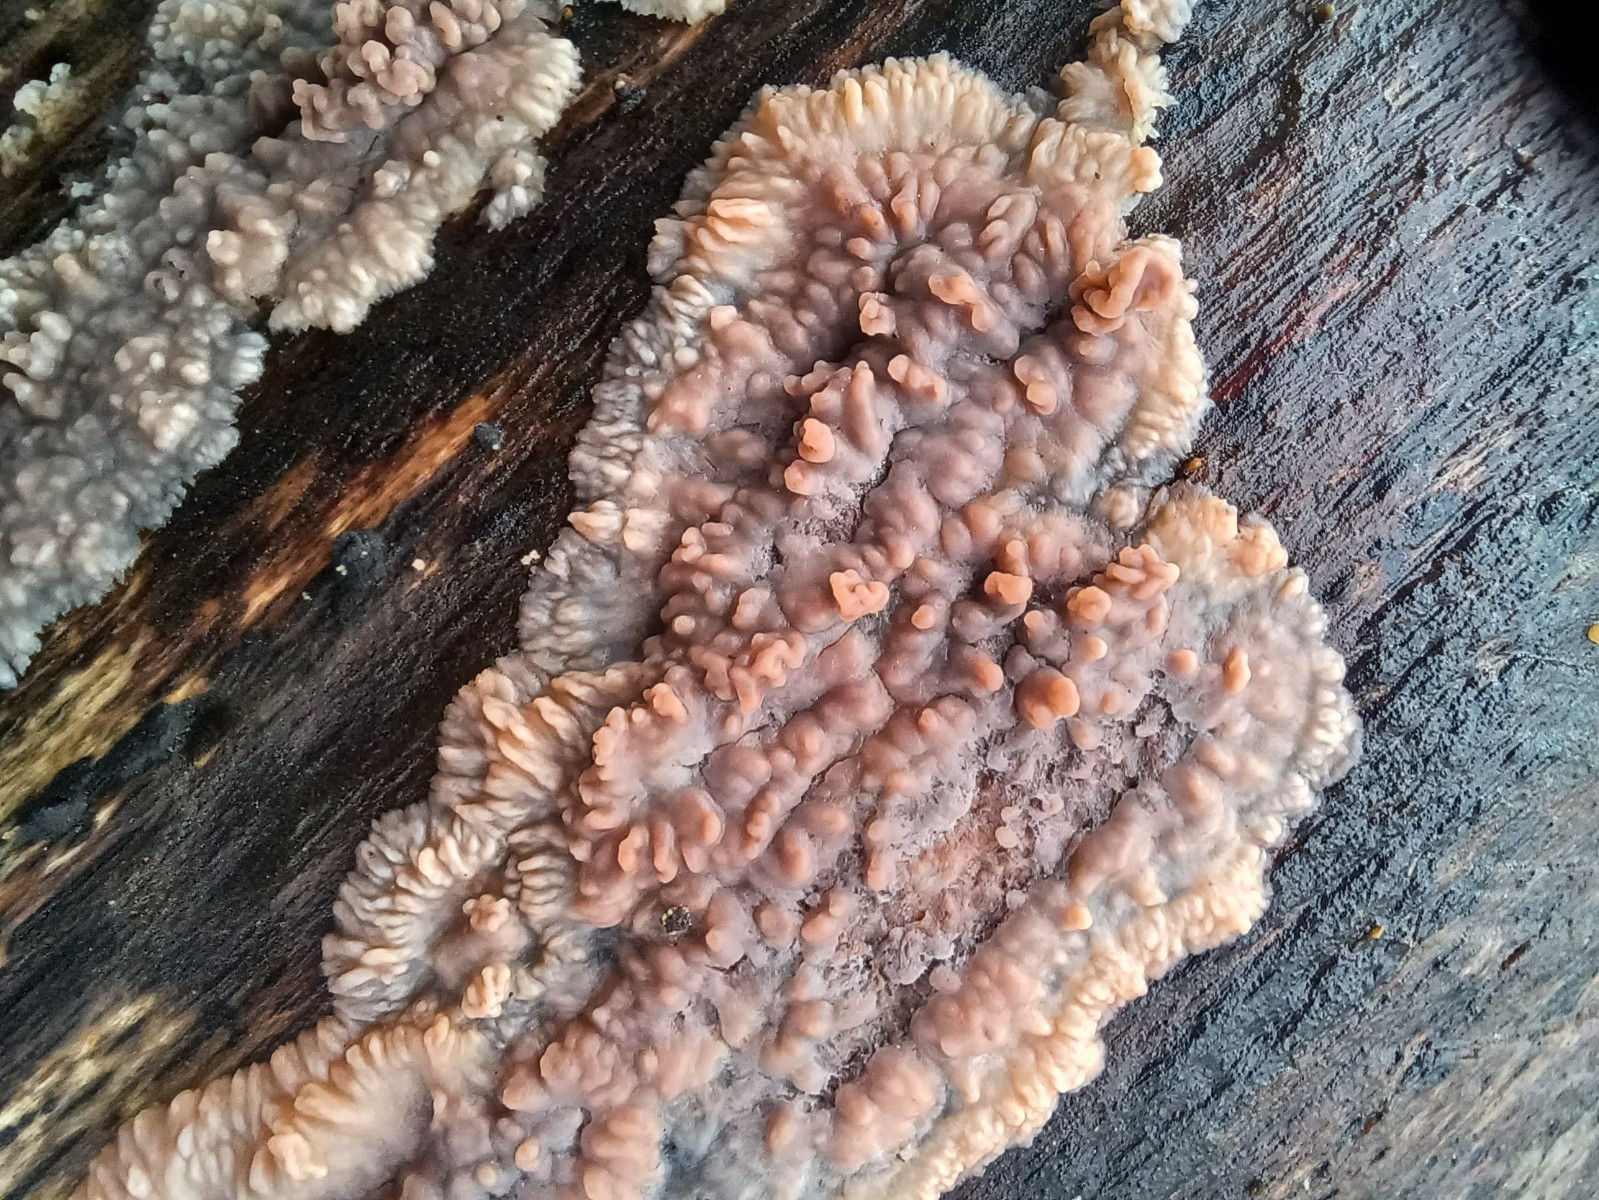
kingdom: Fungi
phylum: Basidiomycota
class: Agaricomycetes
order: Polyporales
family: Meruliaceae
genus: Phlebia
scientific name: Phlebia radiata
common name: stråle-åresvamp
